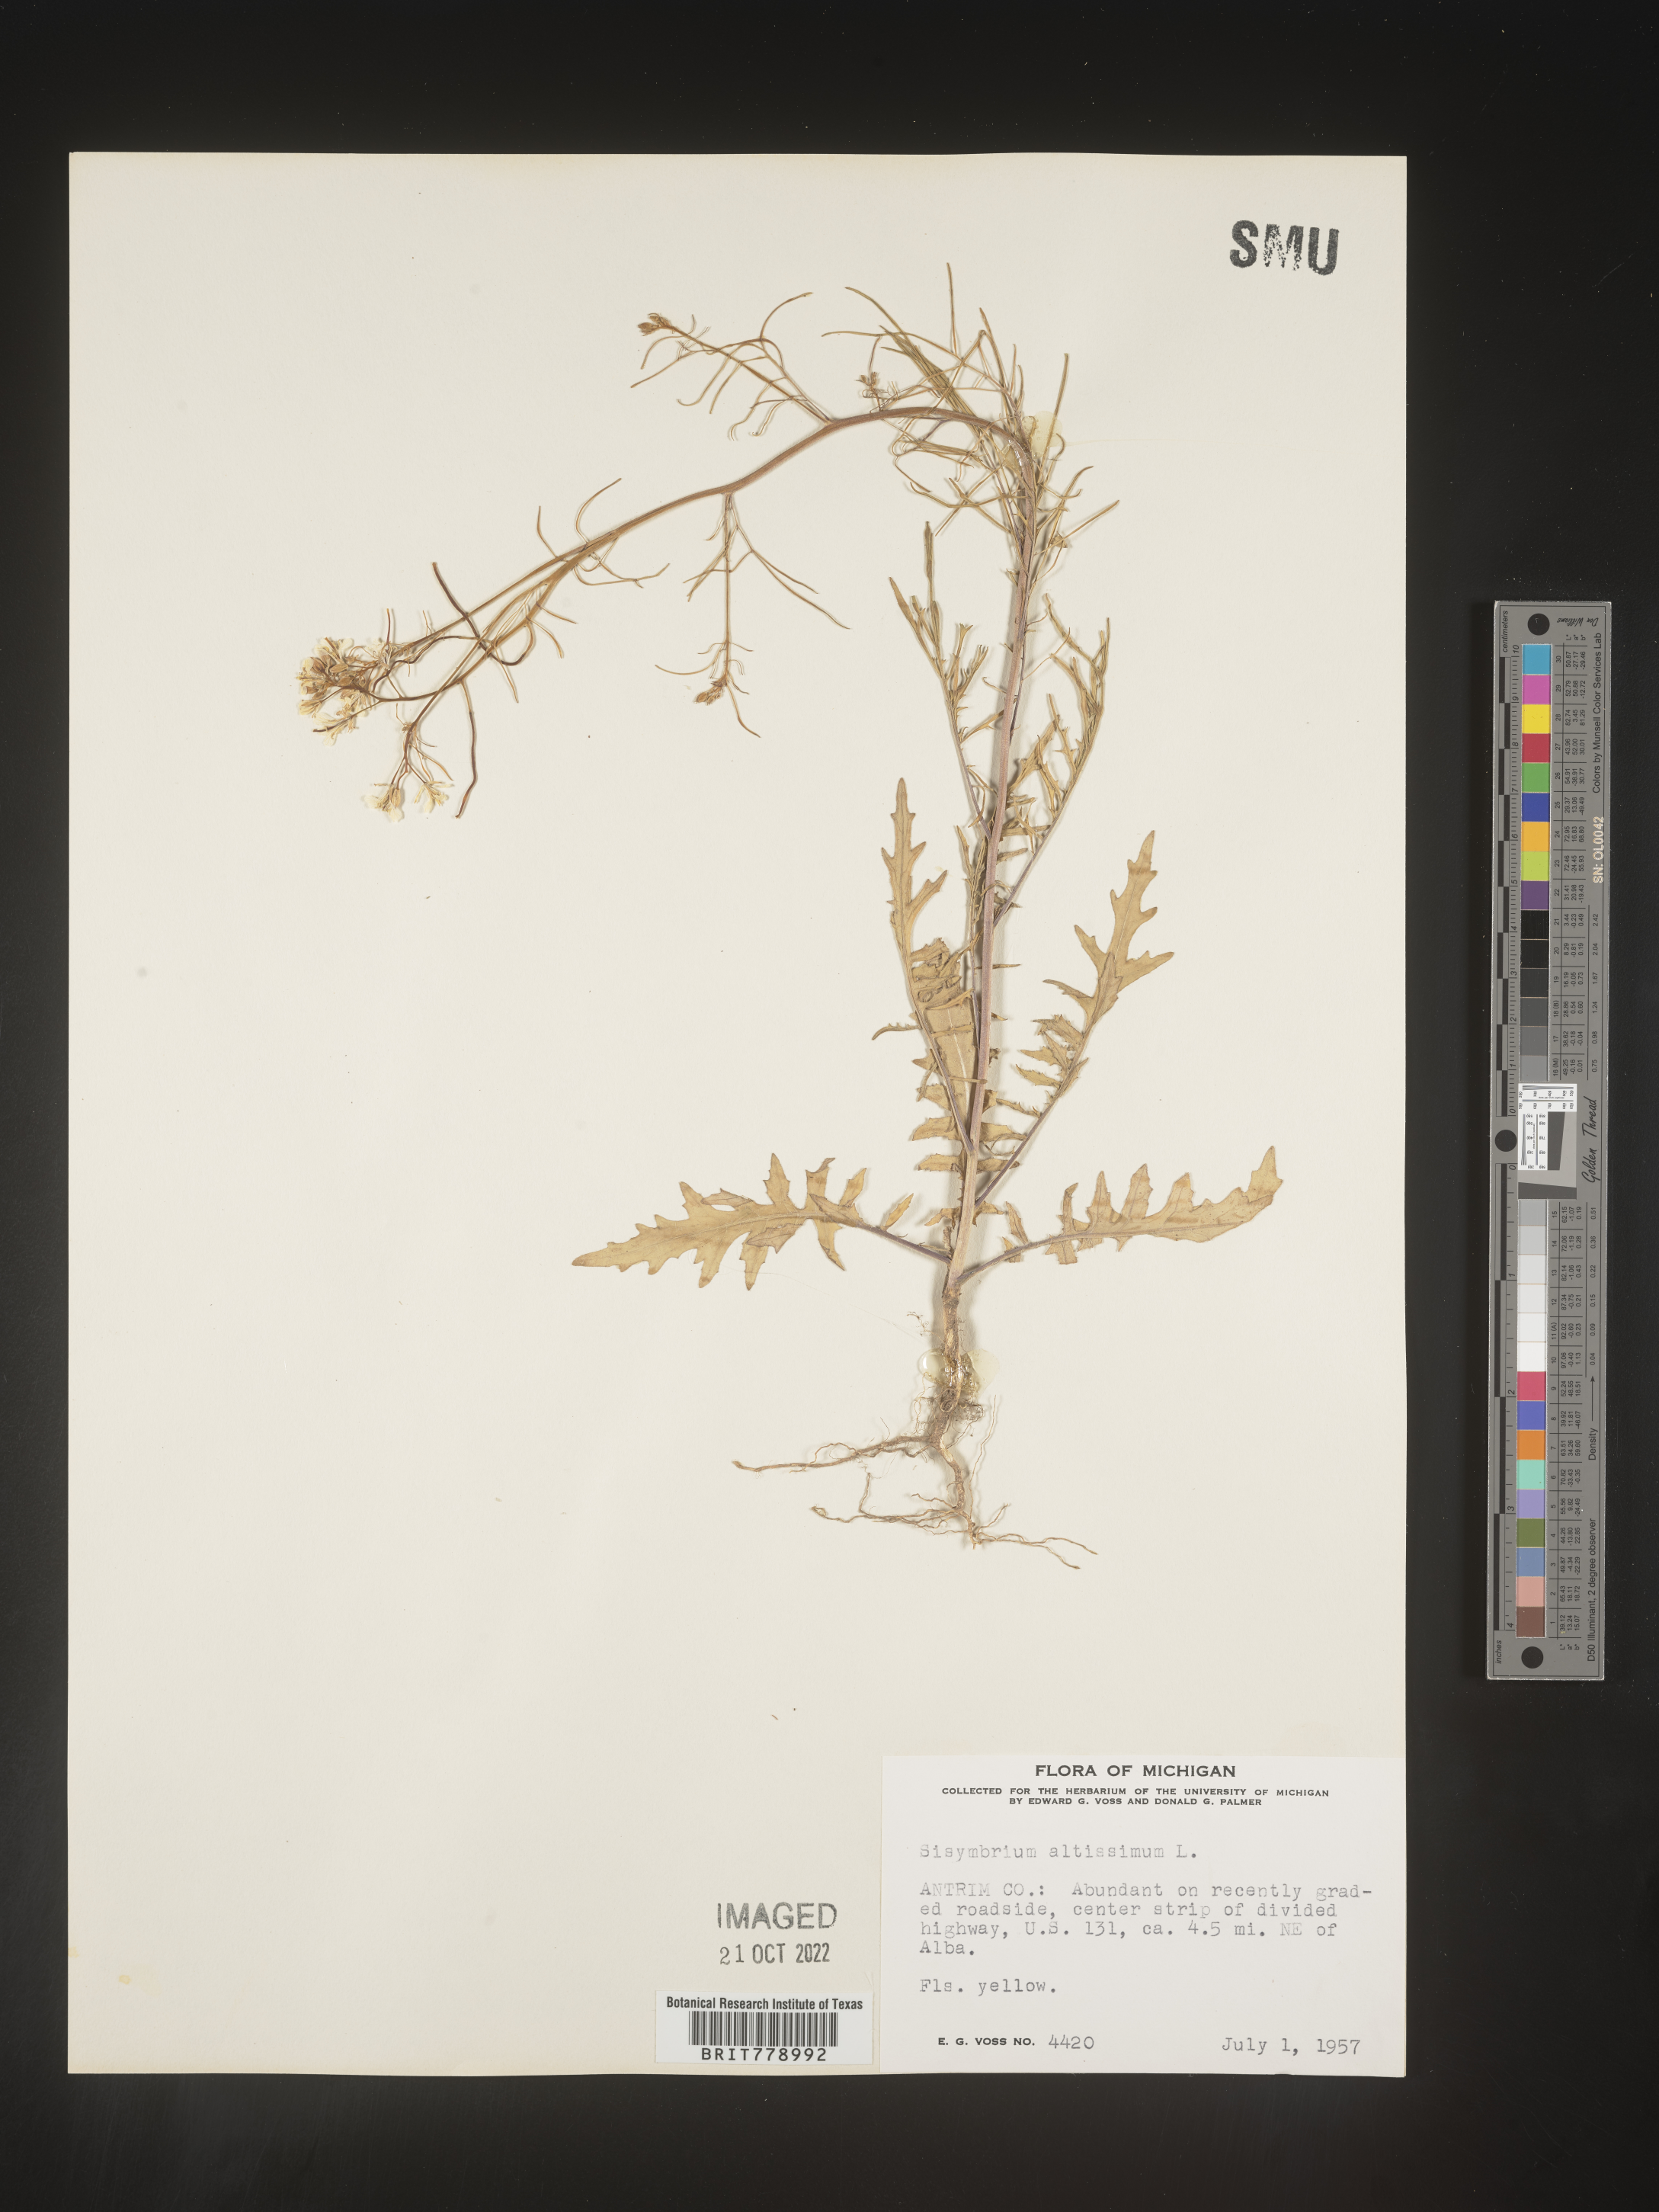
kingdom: Plantae
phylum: Tracheophyta
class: Magnoliopsida
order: Brassicales
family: Brassicaceae
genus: Sisymbrium
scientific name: Sisymbrium altissimum
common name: Tall rocket
